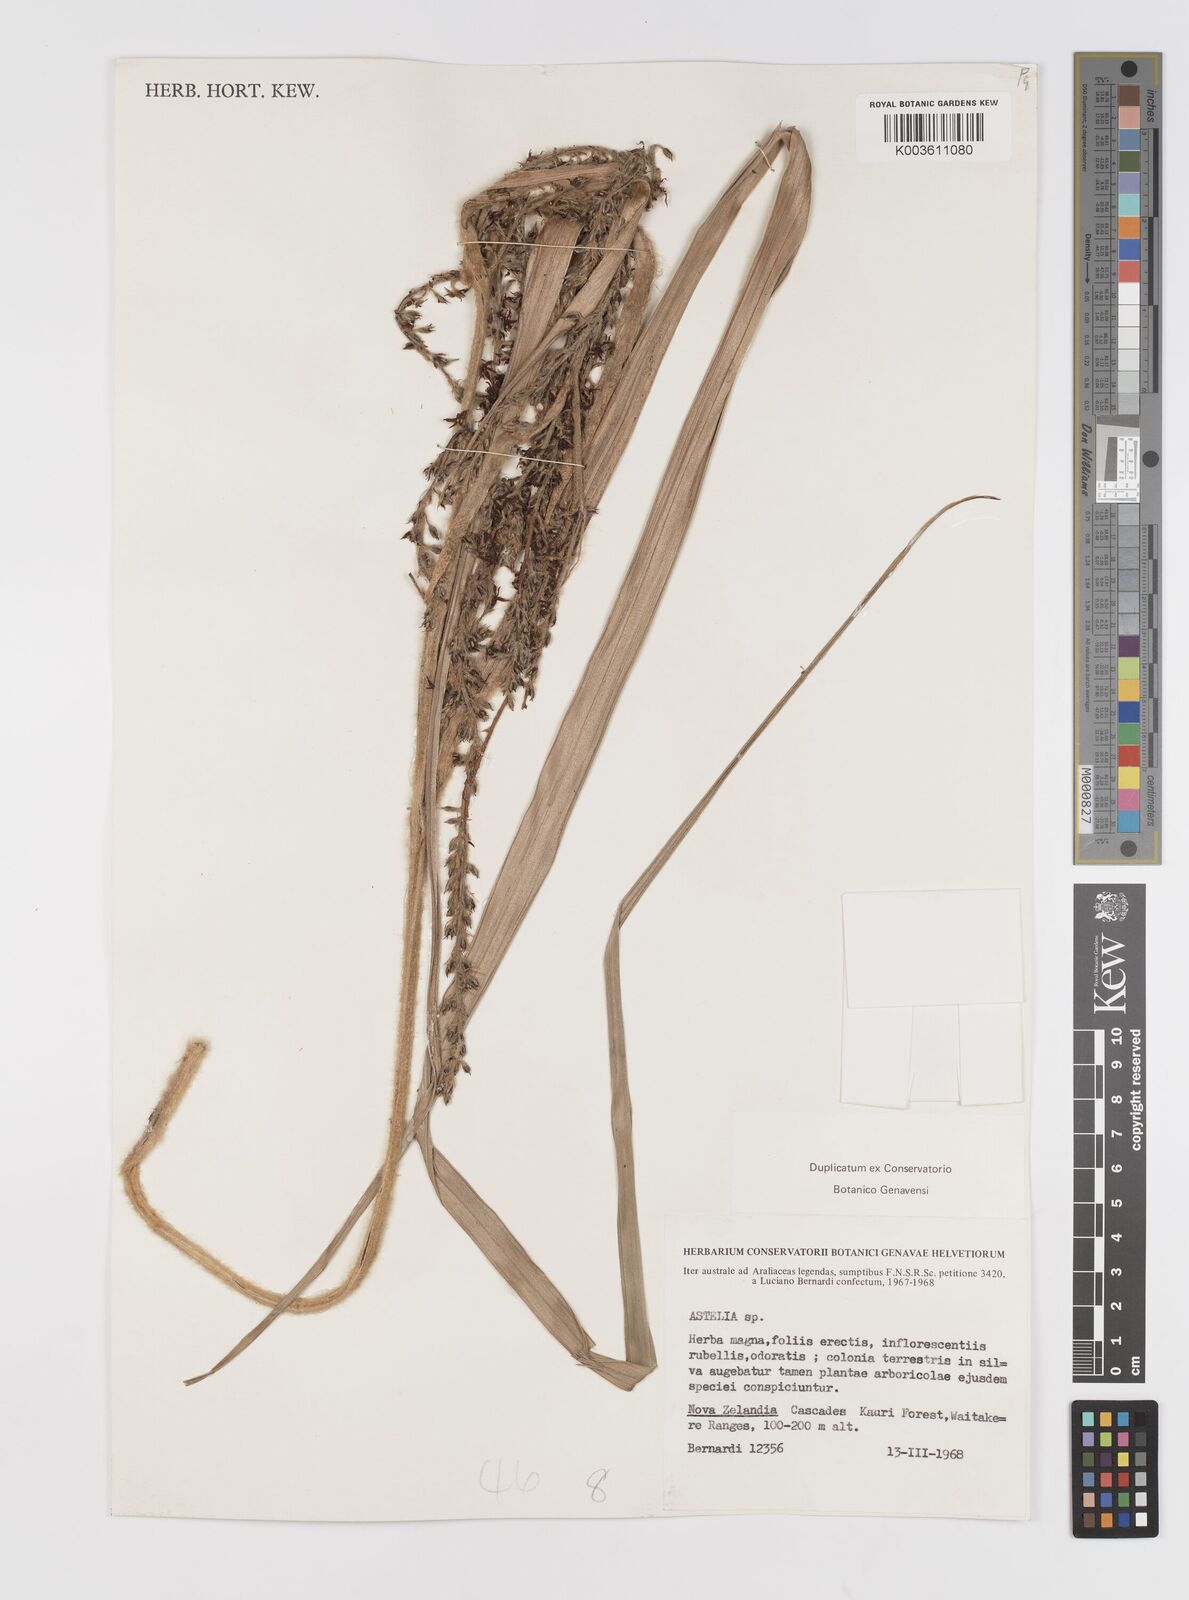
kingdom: Plantae
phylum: Tracheophyta
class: Liliopsida
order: Asparagales
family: Asteliaceae
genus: Astelia
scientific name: Astelia
